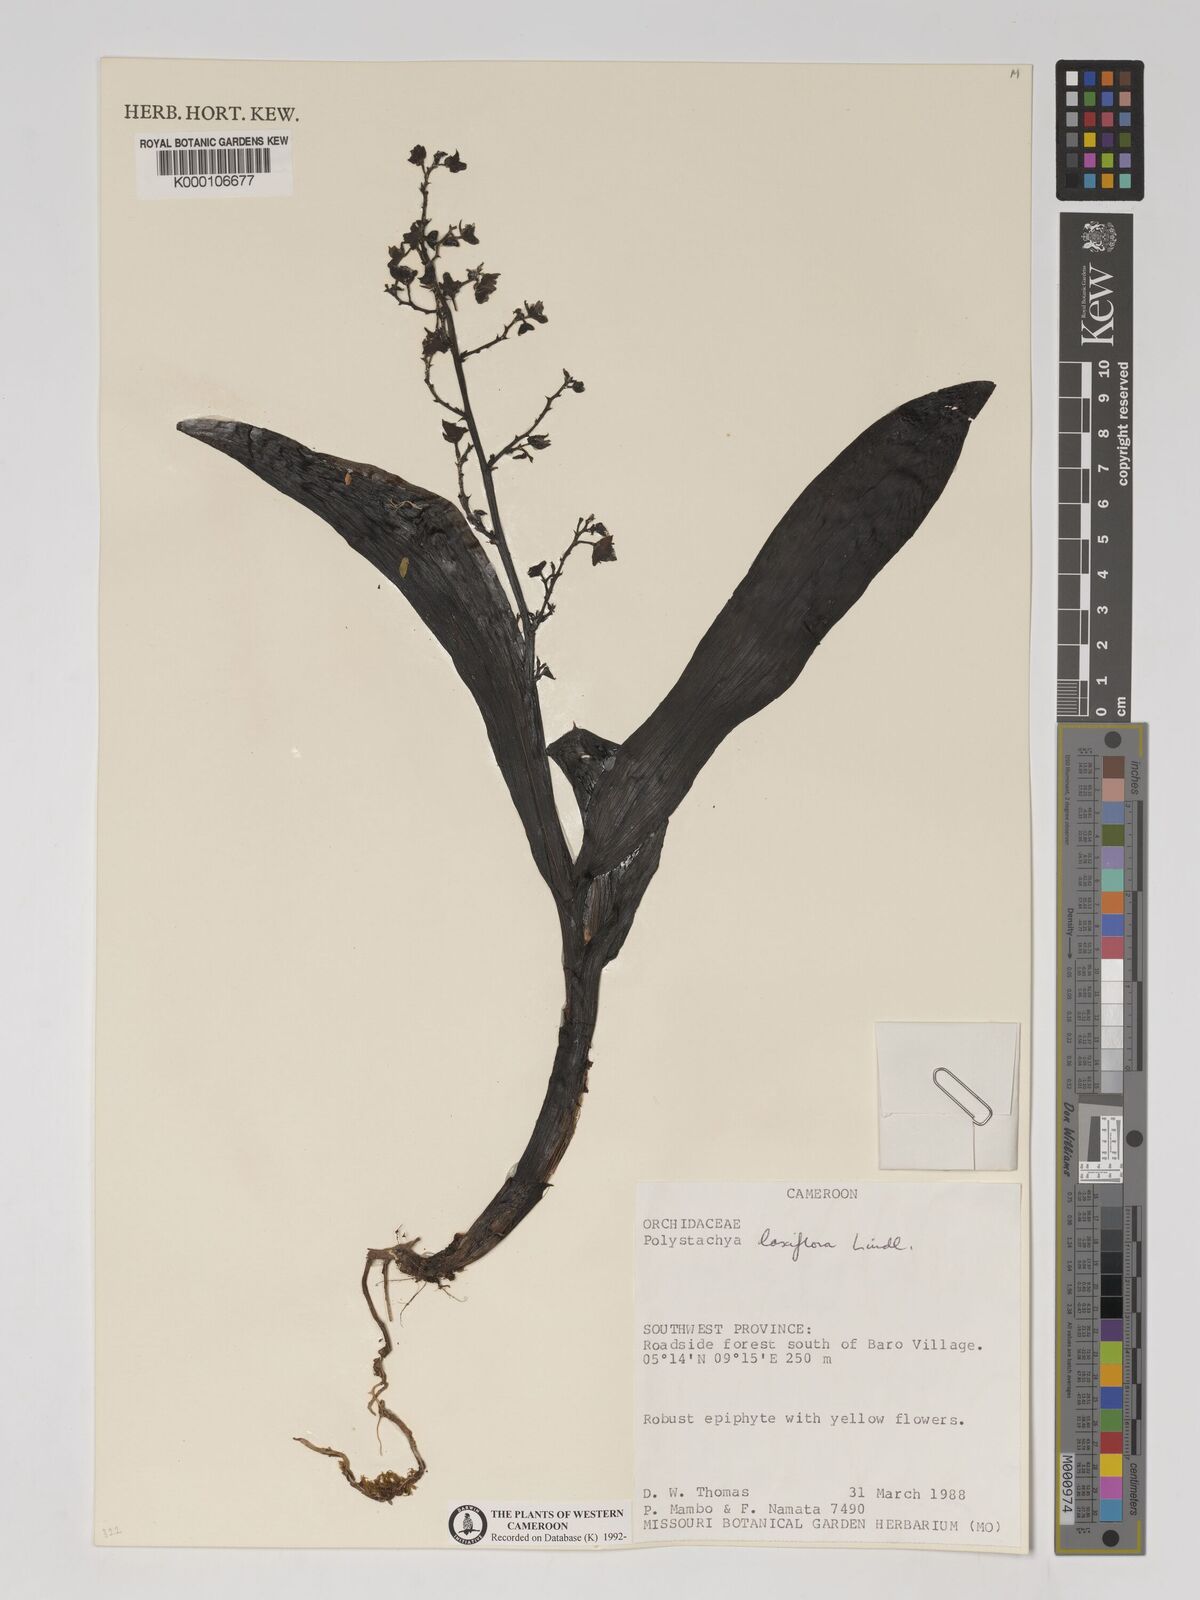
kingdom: Plantae
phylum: Tracheophyta
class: Liliopsida
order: Asparagales
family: Orchidaceae
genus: Polystachya
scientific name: Polystachya laxiflora
